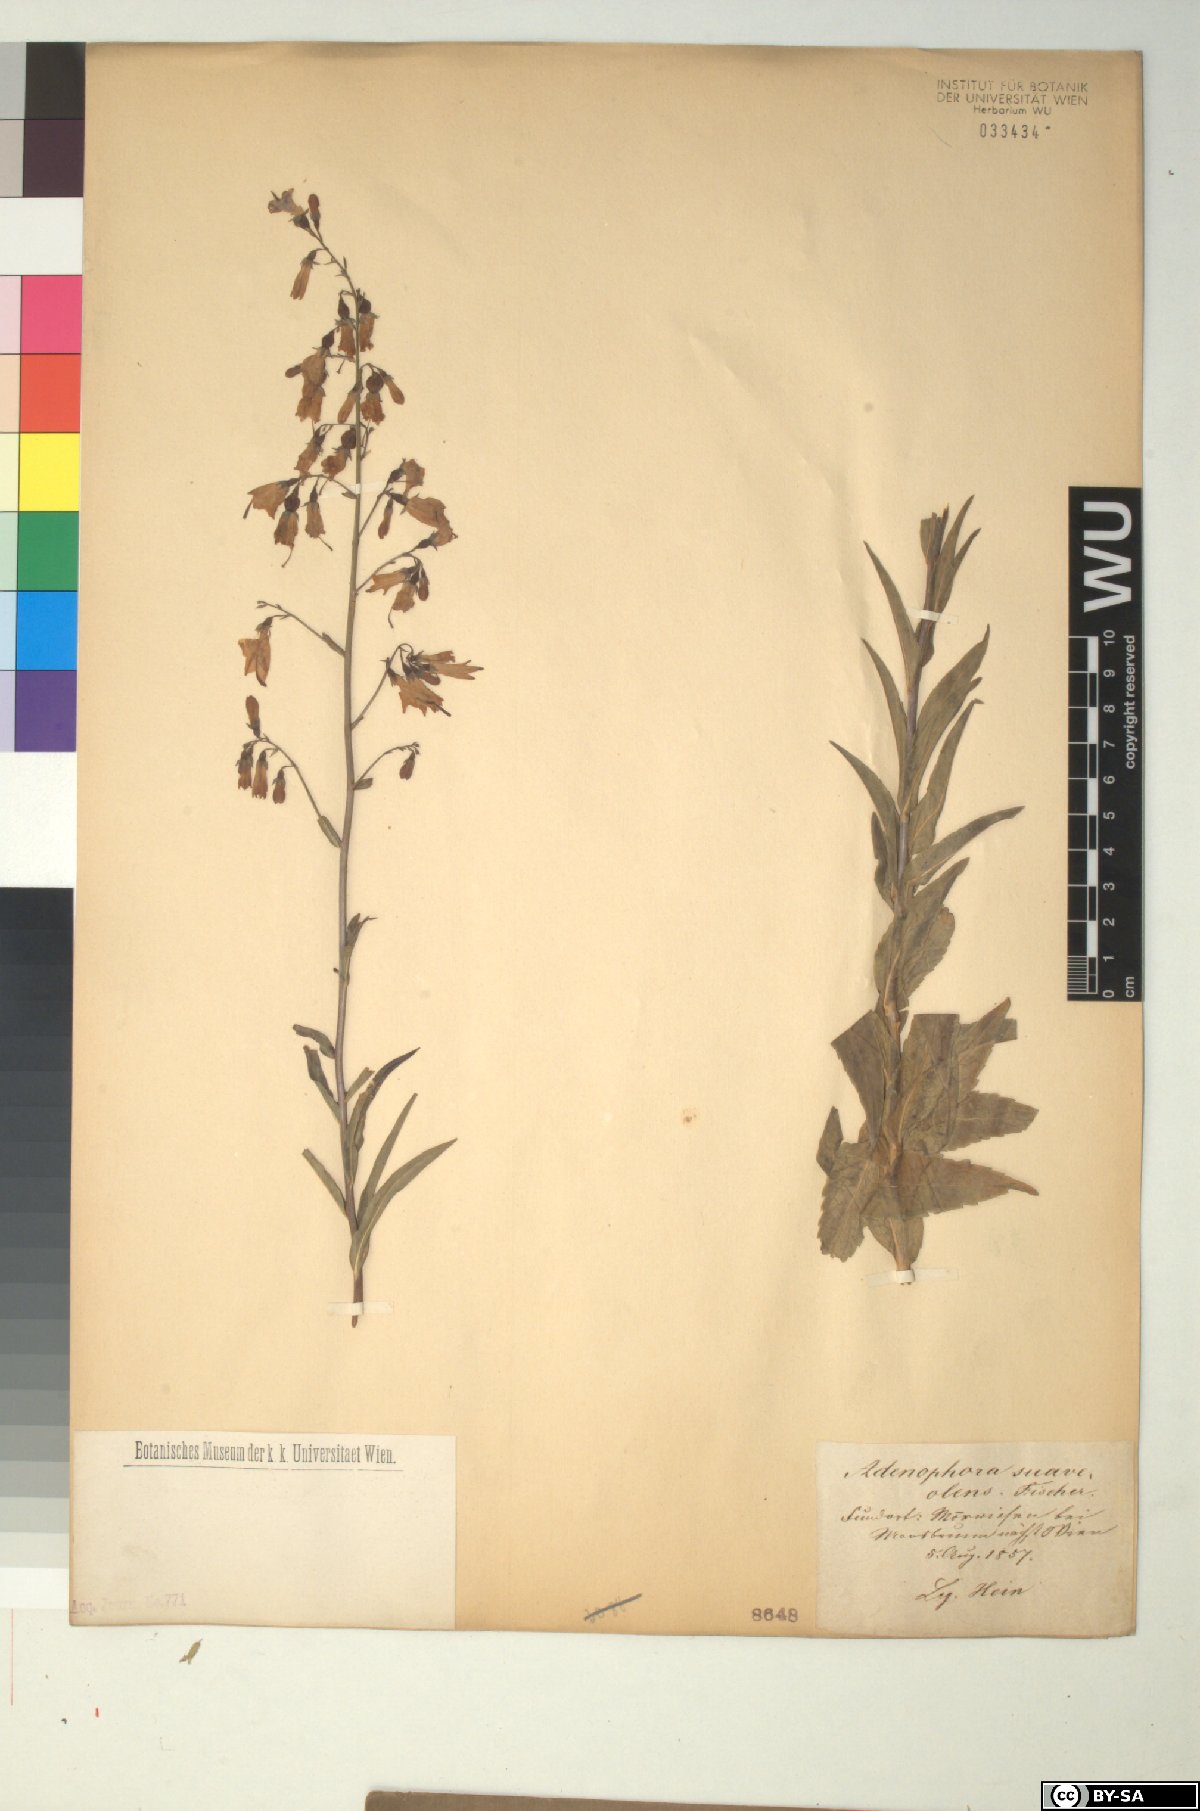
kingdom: Plantae
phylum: Tracheophyta
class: Magnoliopsida
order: Asterales
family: Campanulaceae
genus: Adenophora
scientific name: Adenophora liliifolia
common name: Lilyleaf ladybells
